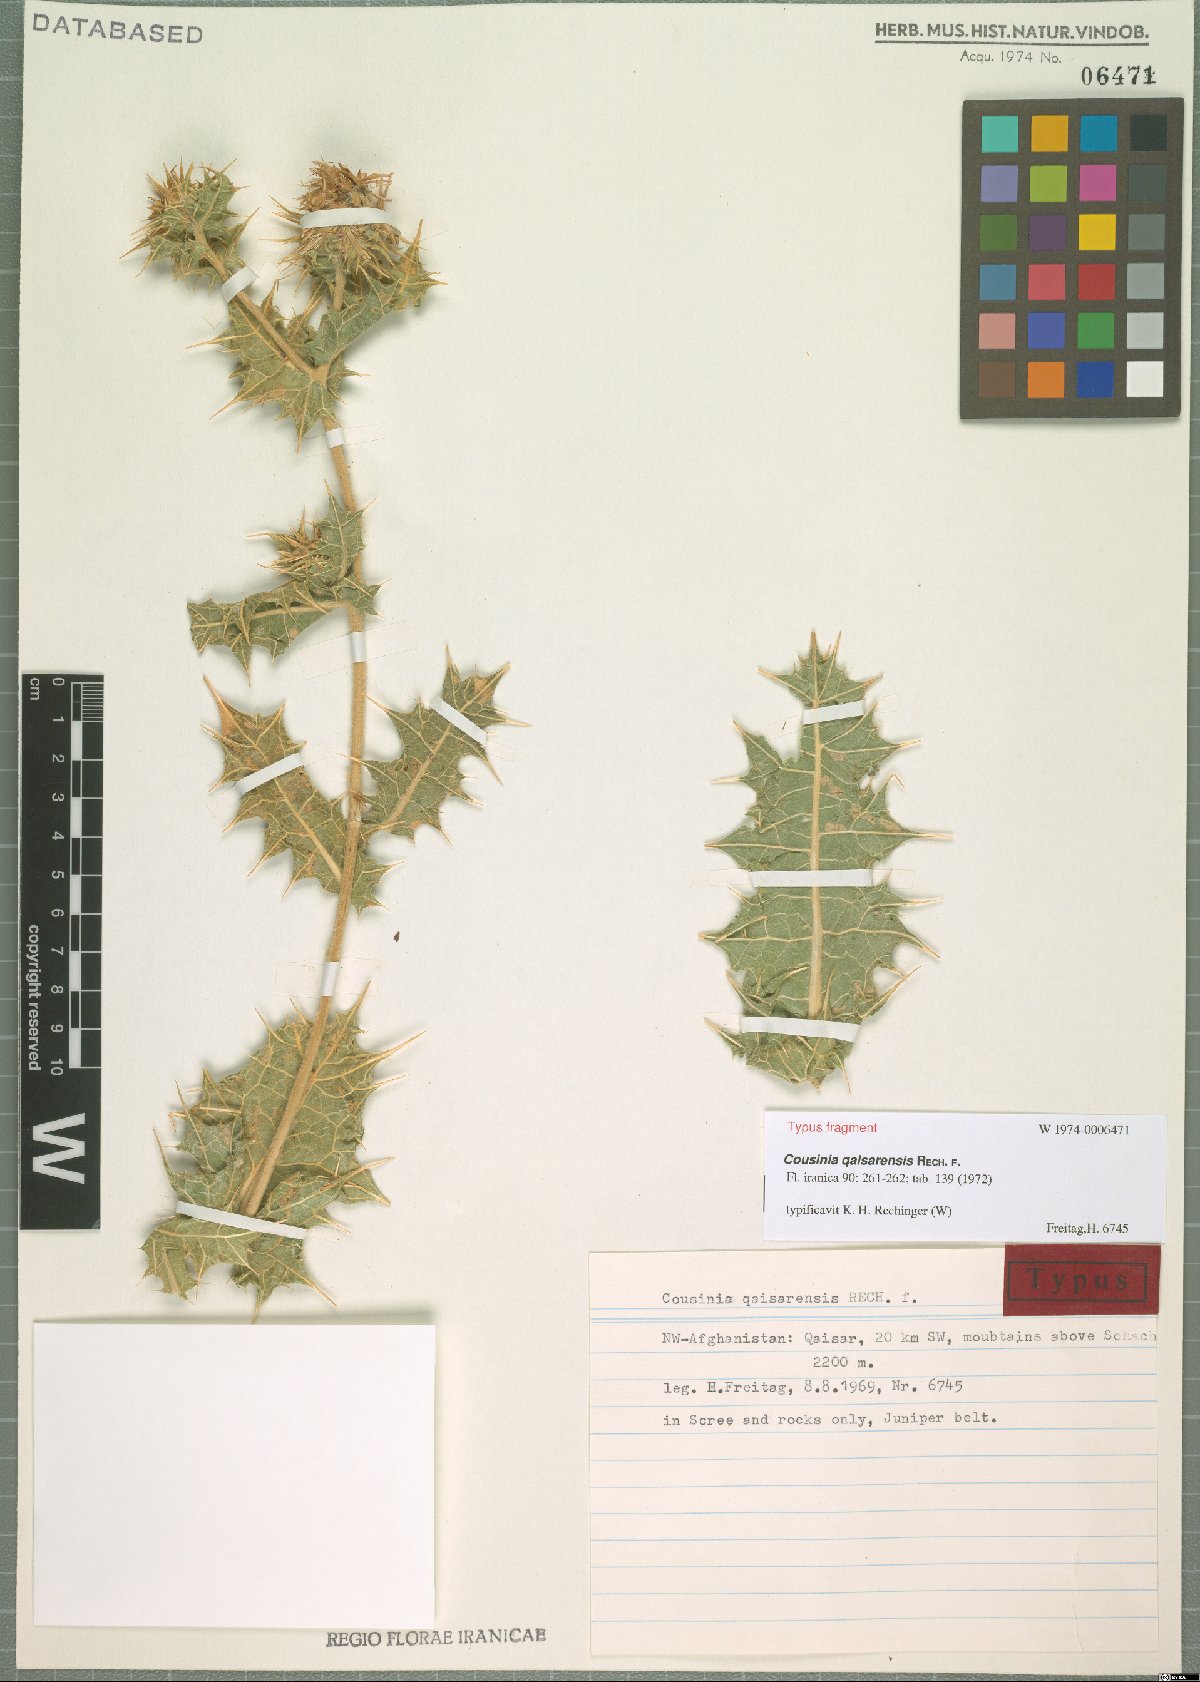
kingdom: Plantae
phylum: Tracheophyta
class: Magnoliopsida
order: Asterales
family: Asteraceae
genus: Cousinia
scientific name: Cousinia qaisarensis
